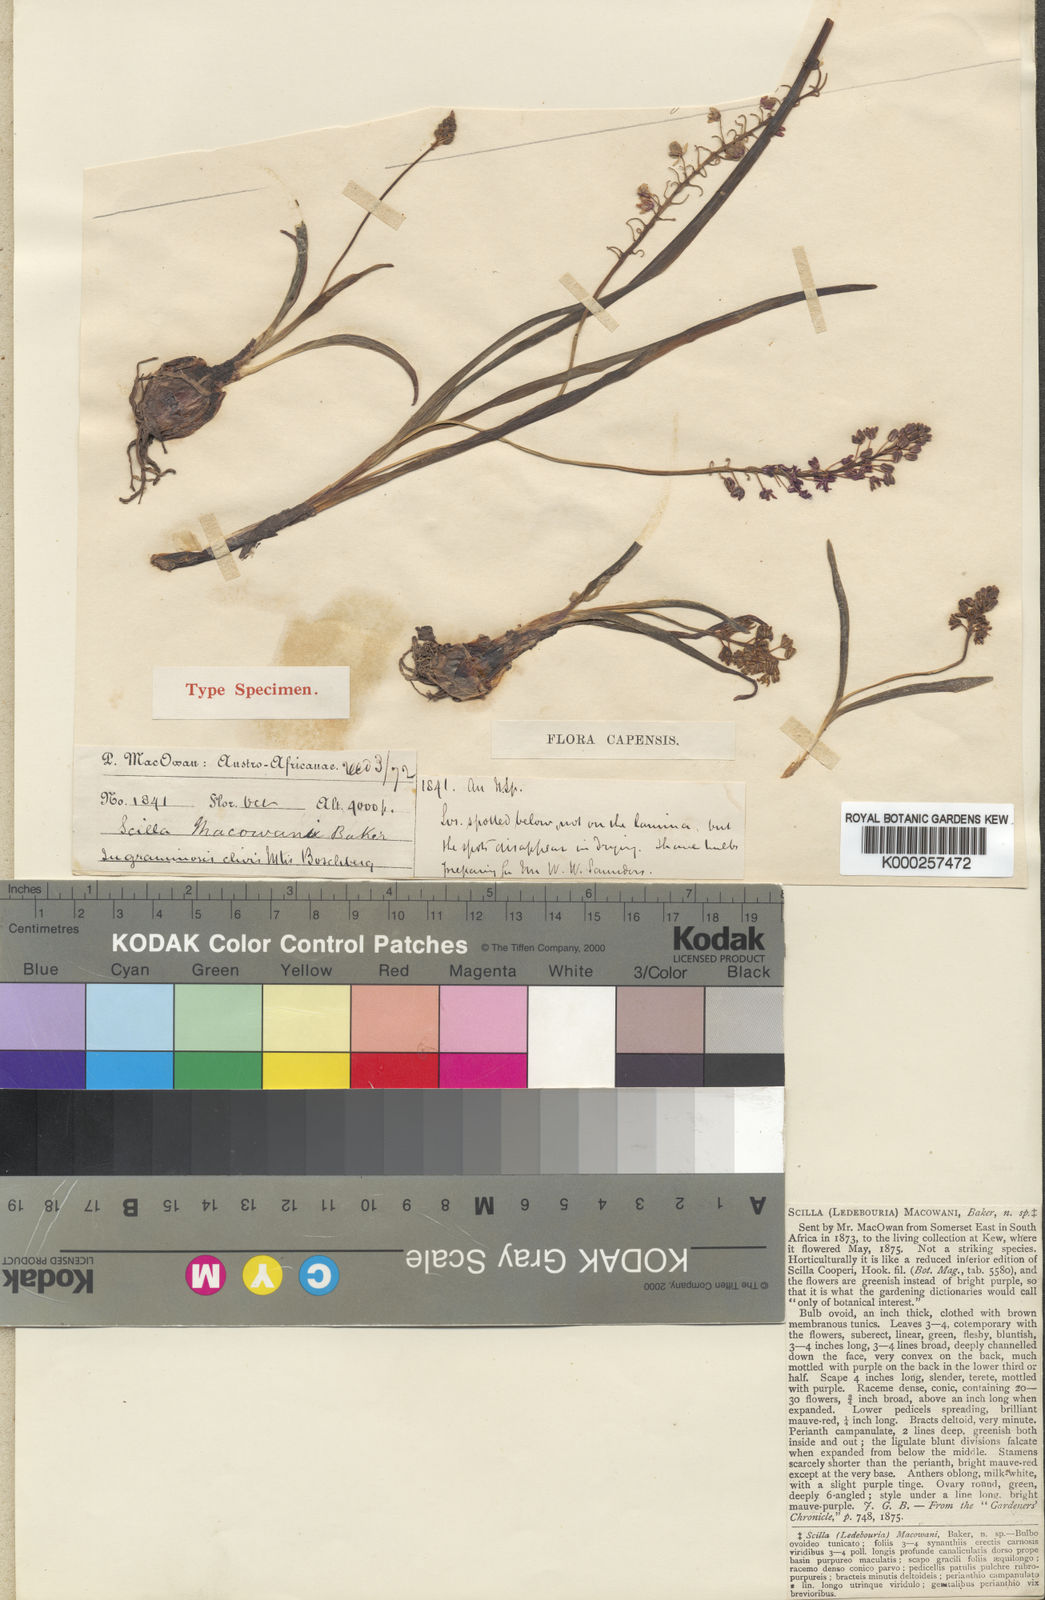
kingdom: Plantae
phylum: Tracheophyta
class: Liliopsida
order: Asparagales
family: Asparagaceae
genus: Ledebouria
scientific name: Ledebouria cooperi
